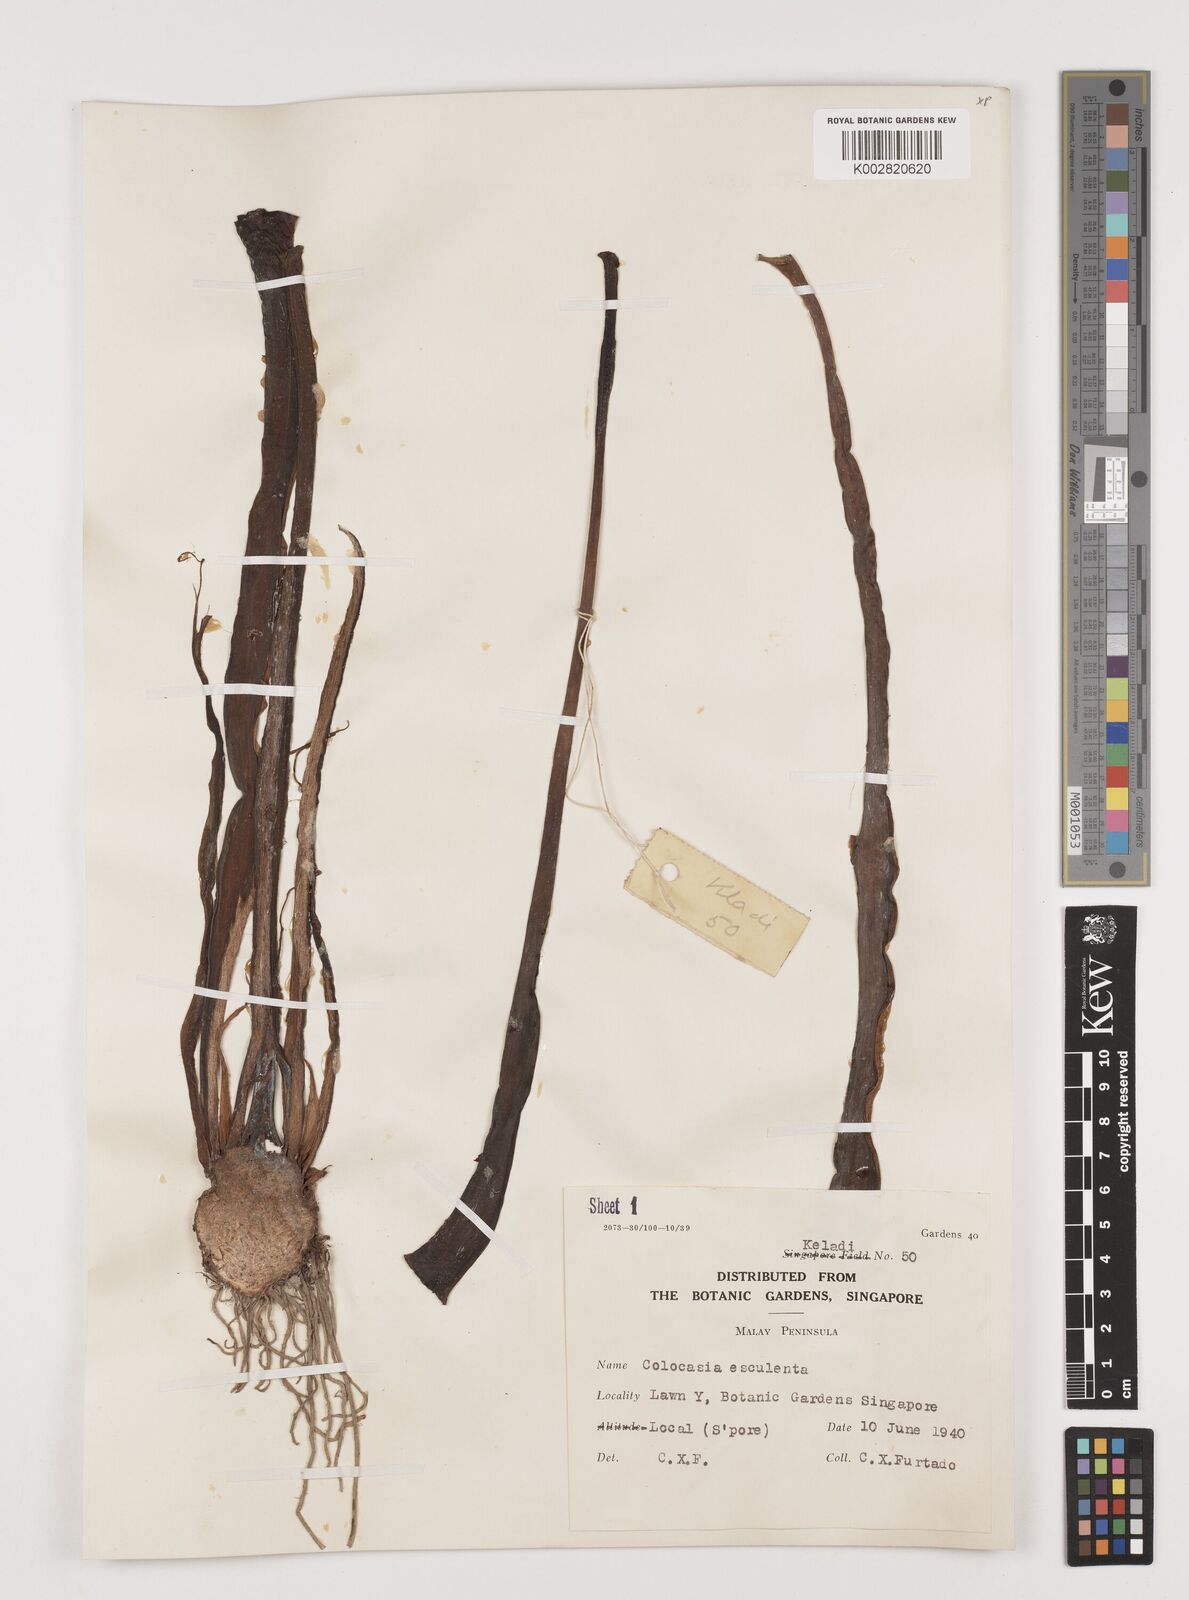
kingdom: Plantae
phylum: Tracheophyta
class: Liliopsida
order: Alismatales
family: Araceae
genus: Colocasia
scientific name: Colocasia esculenta
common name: Taro
